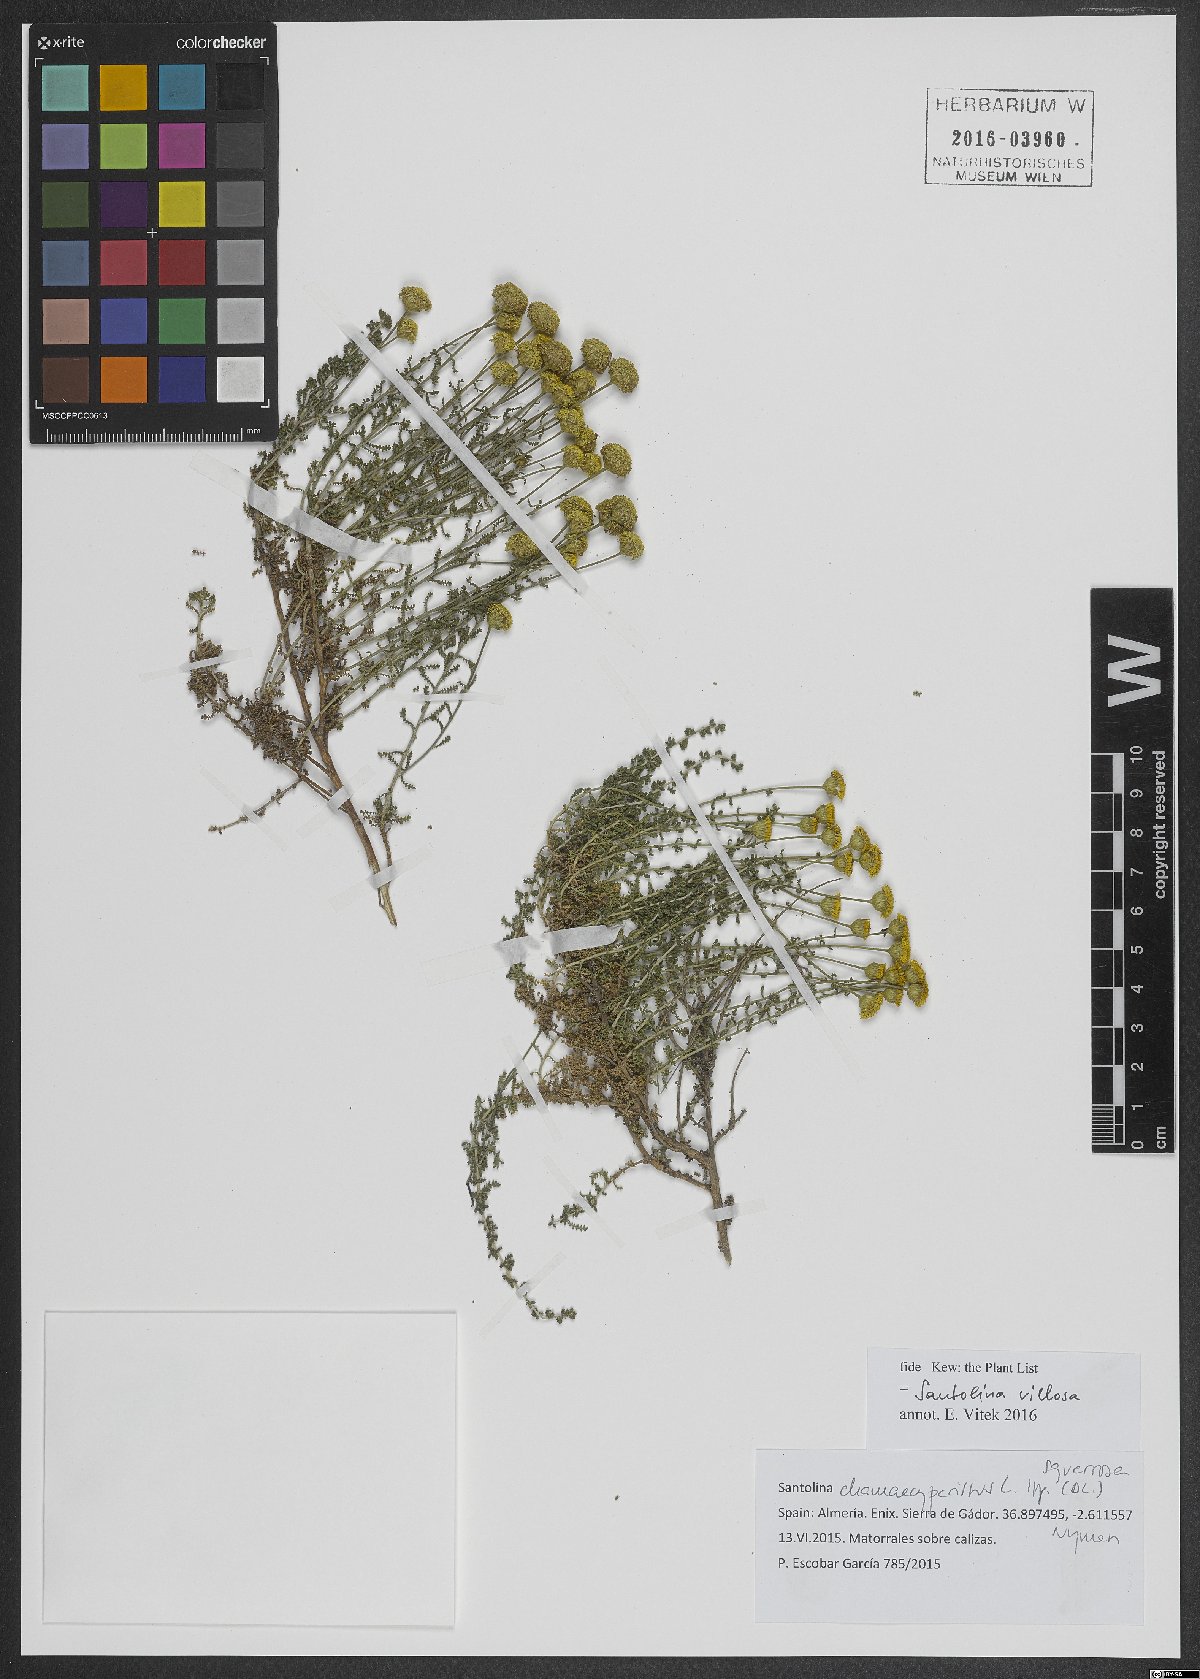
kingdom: Plantae
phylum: Tracheophyta
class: Magnoliopsida
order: Asterales
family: Asteraceae
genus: Santolina
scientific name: Santolina chamaecyparissus
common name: Lavender-cotton
